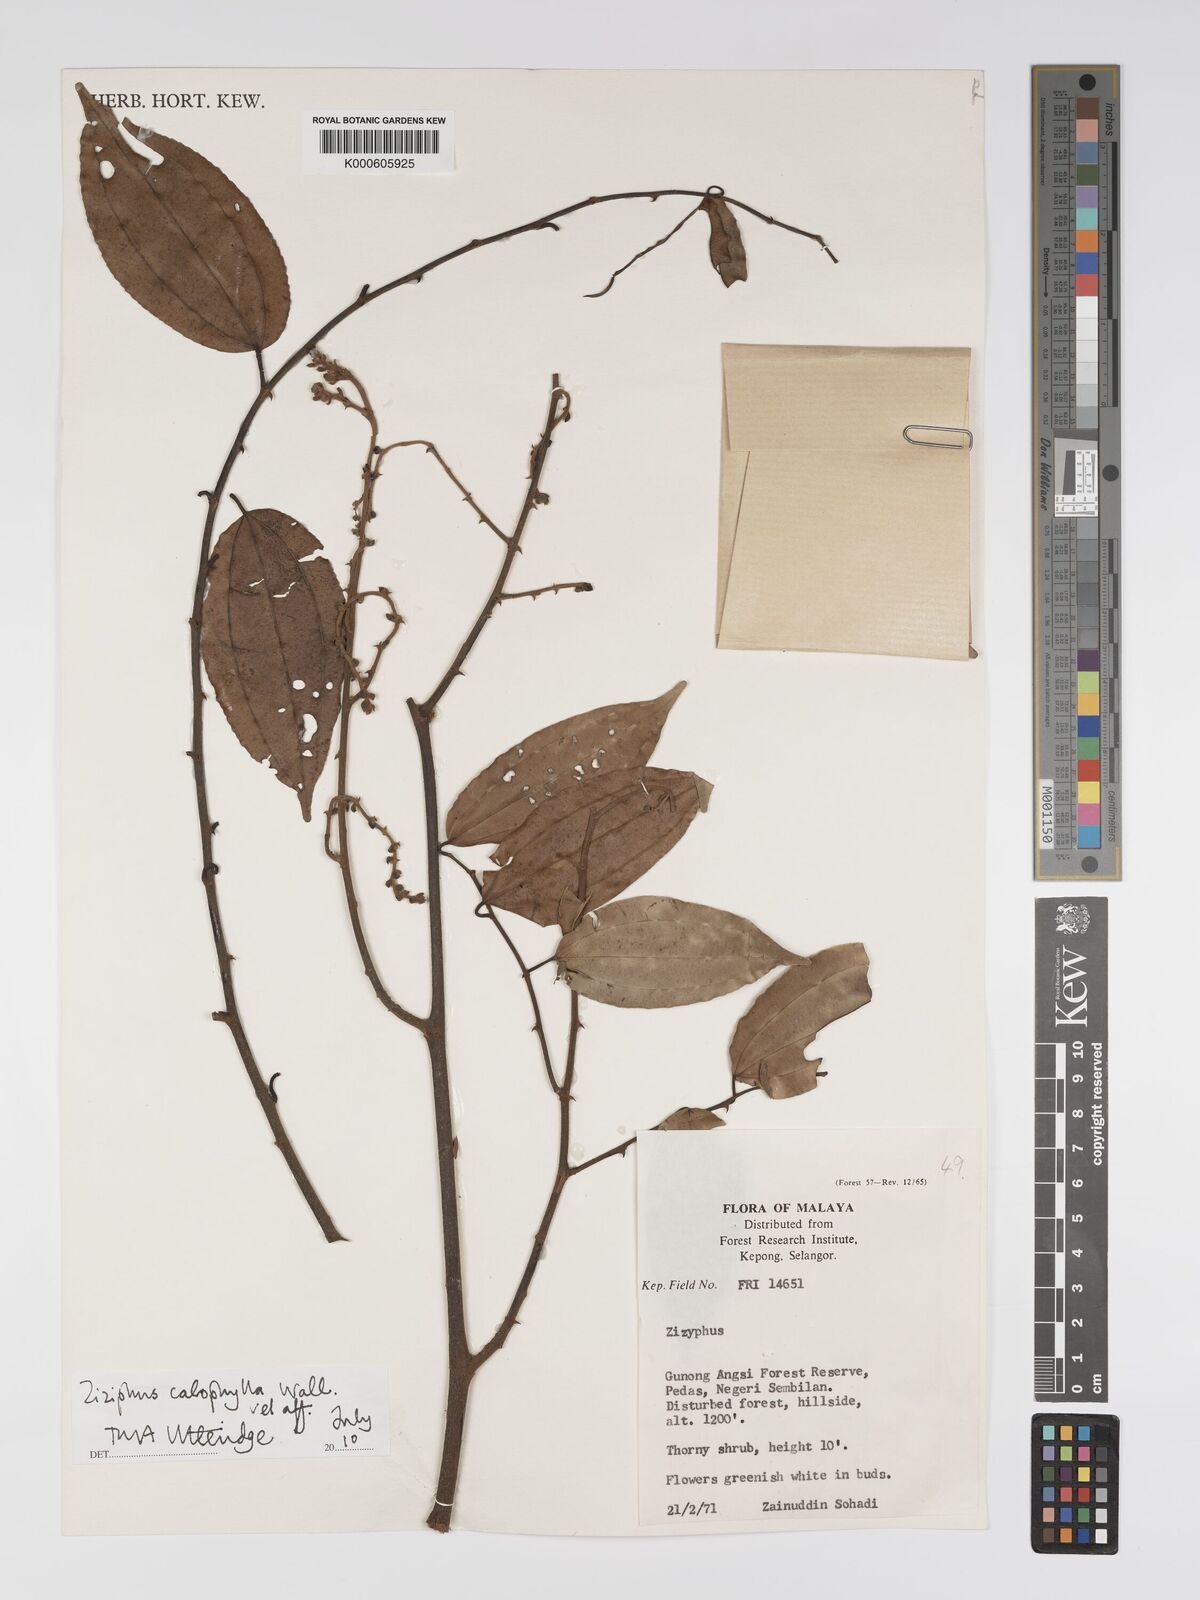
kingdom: Plantae
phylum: Tracheophyta
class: Magnoliopsida
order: Rosales
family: Rhamnaceae
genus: Ziziphus
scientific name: Ziziphus calophylla
